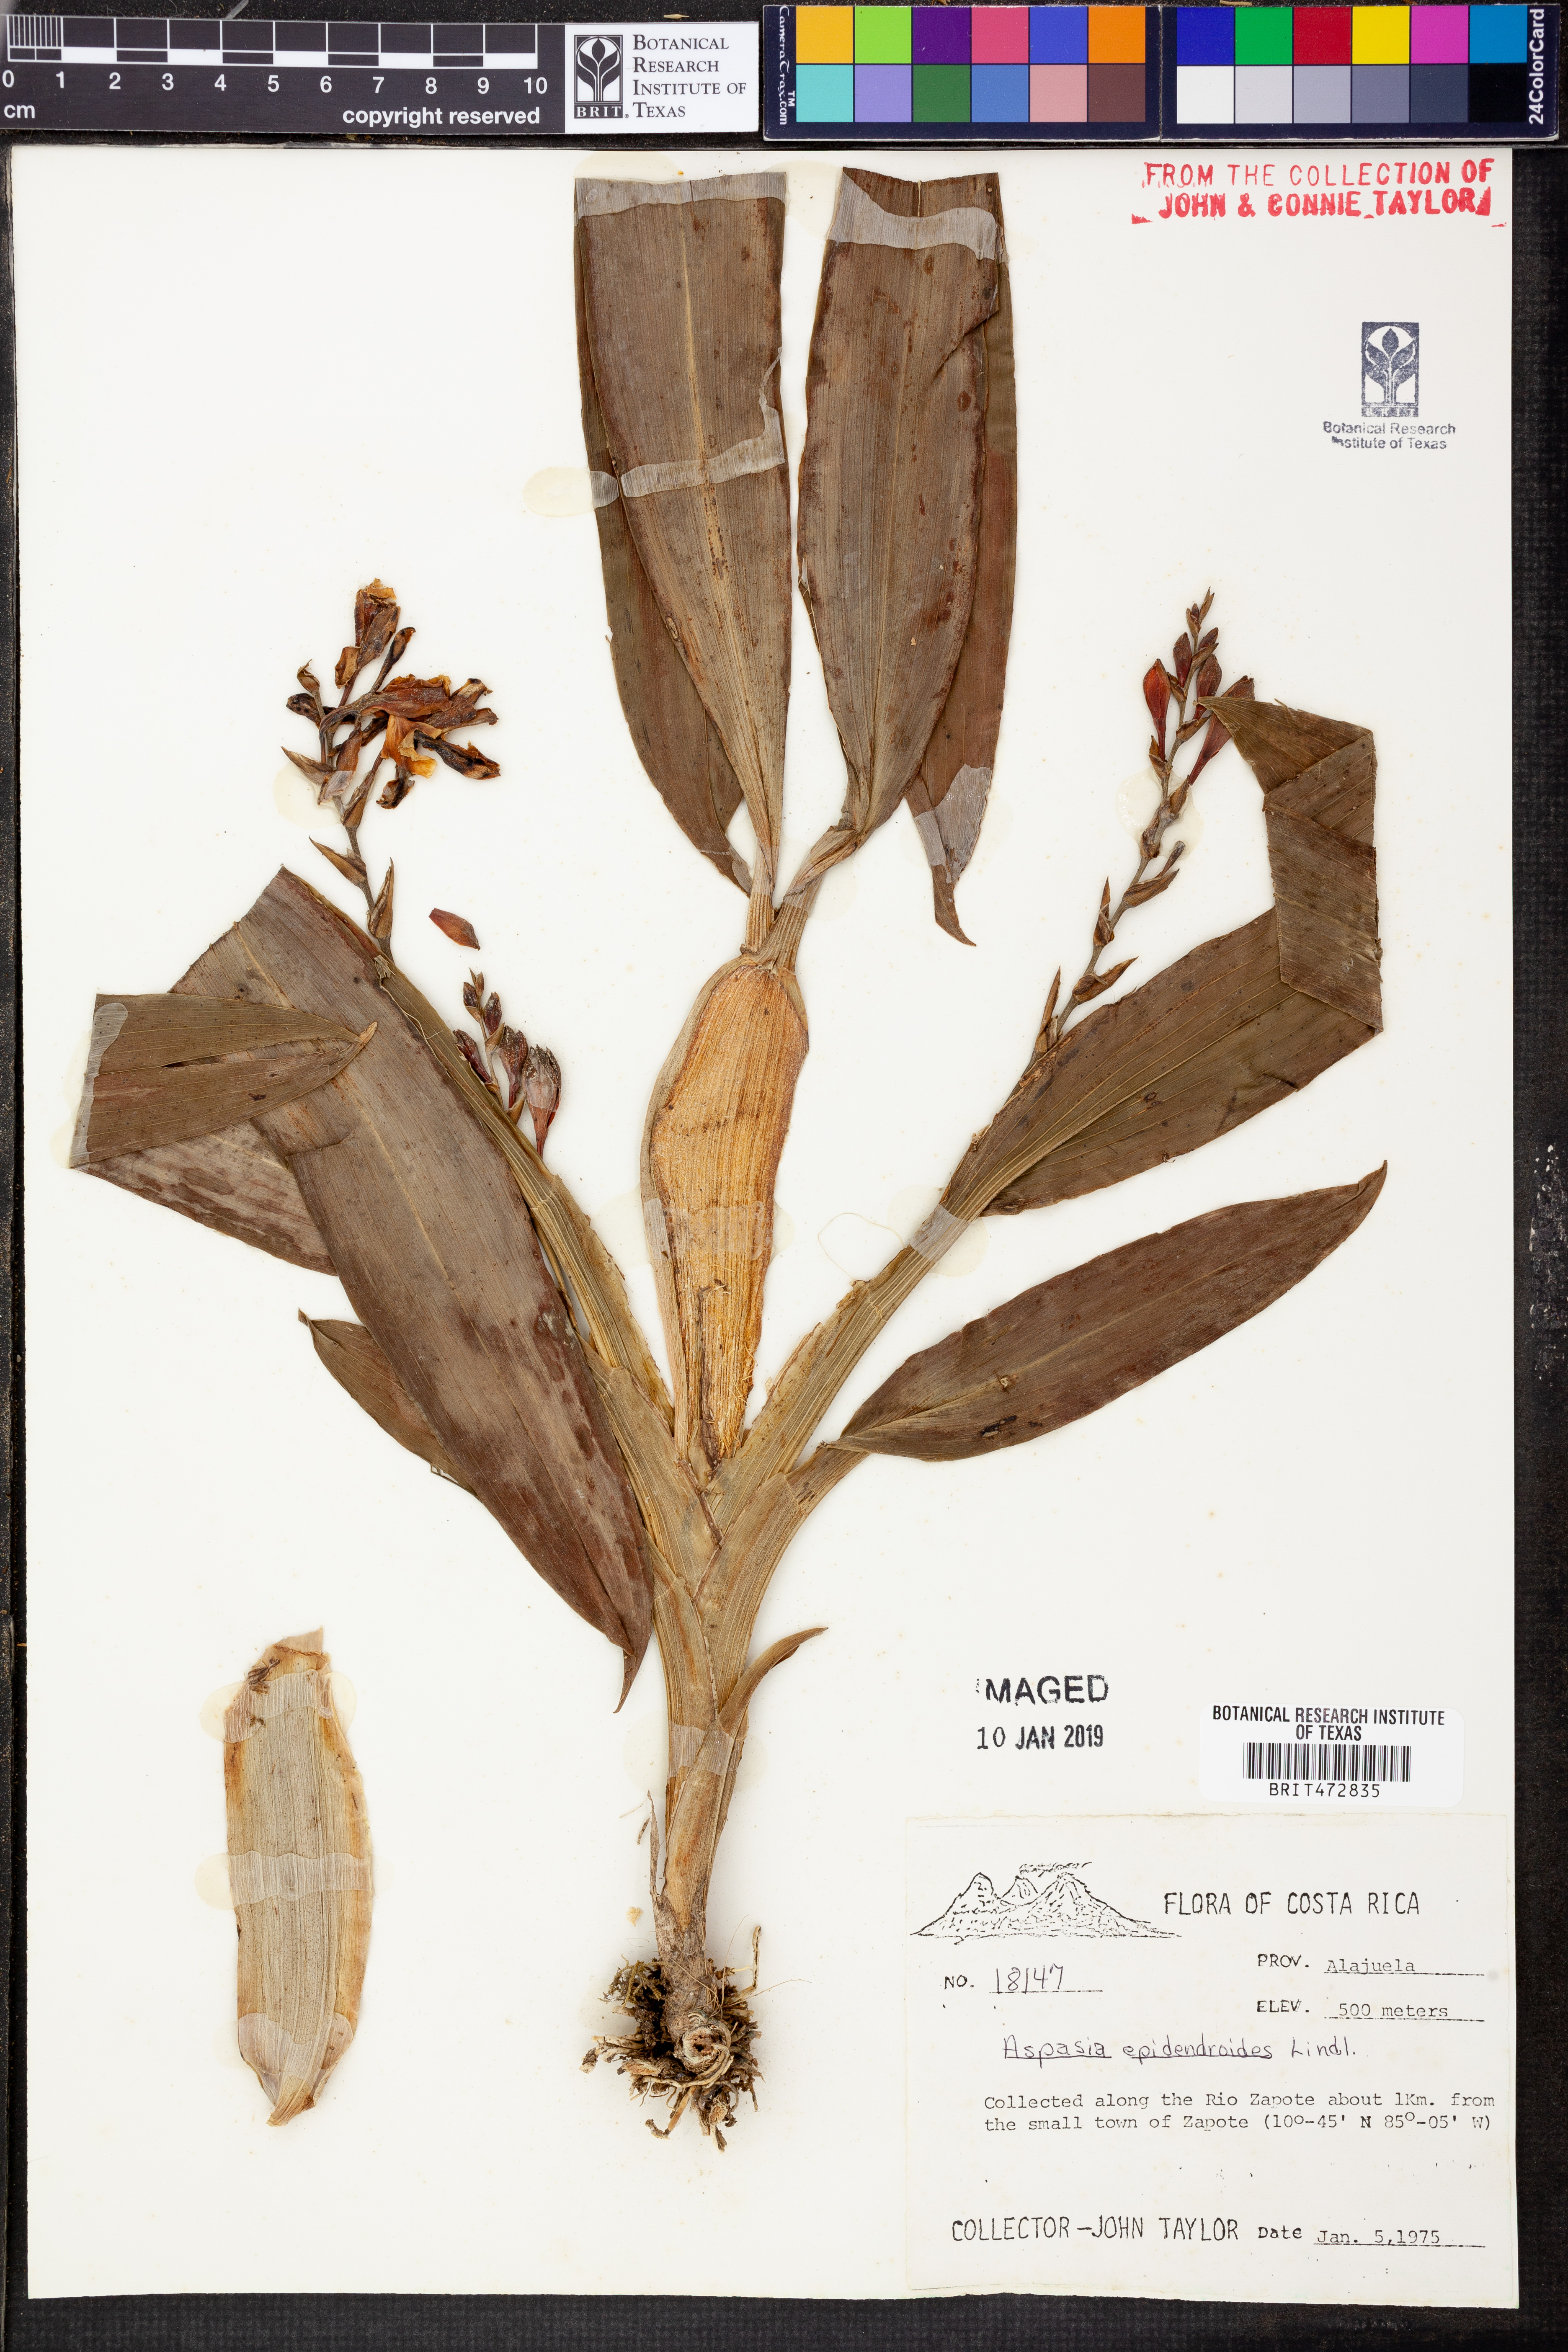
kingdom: Plantae
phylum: Tracheophyta
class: Liliopsida
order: Asparagales
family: Orchidaceae
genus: Aspasia
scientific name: Aspasia epidendroides
